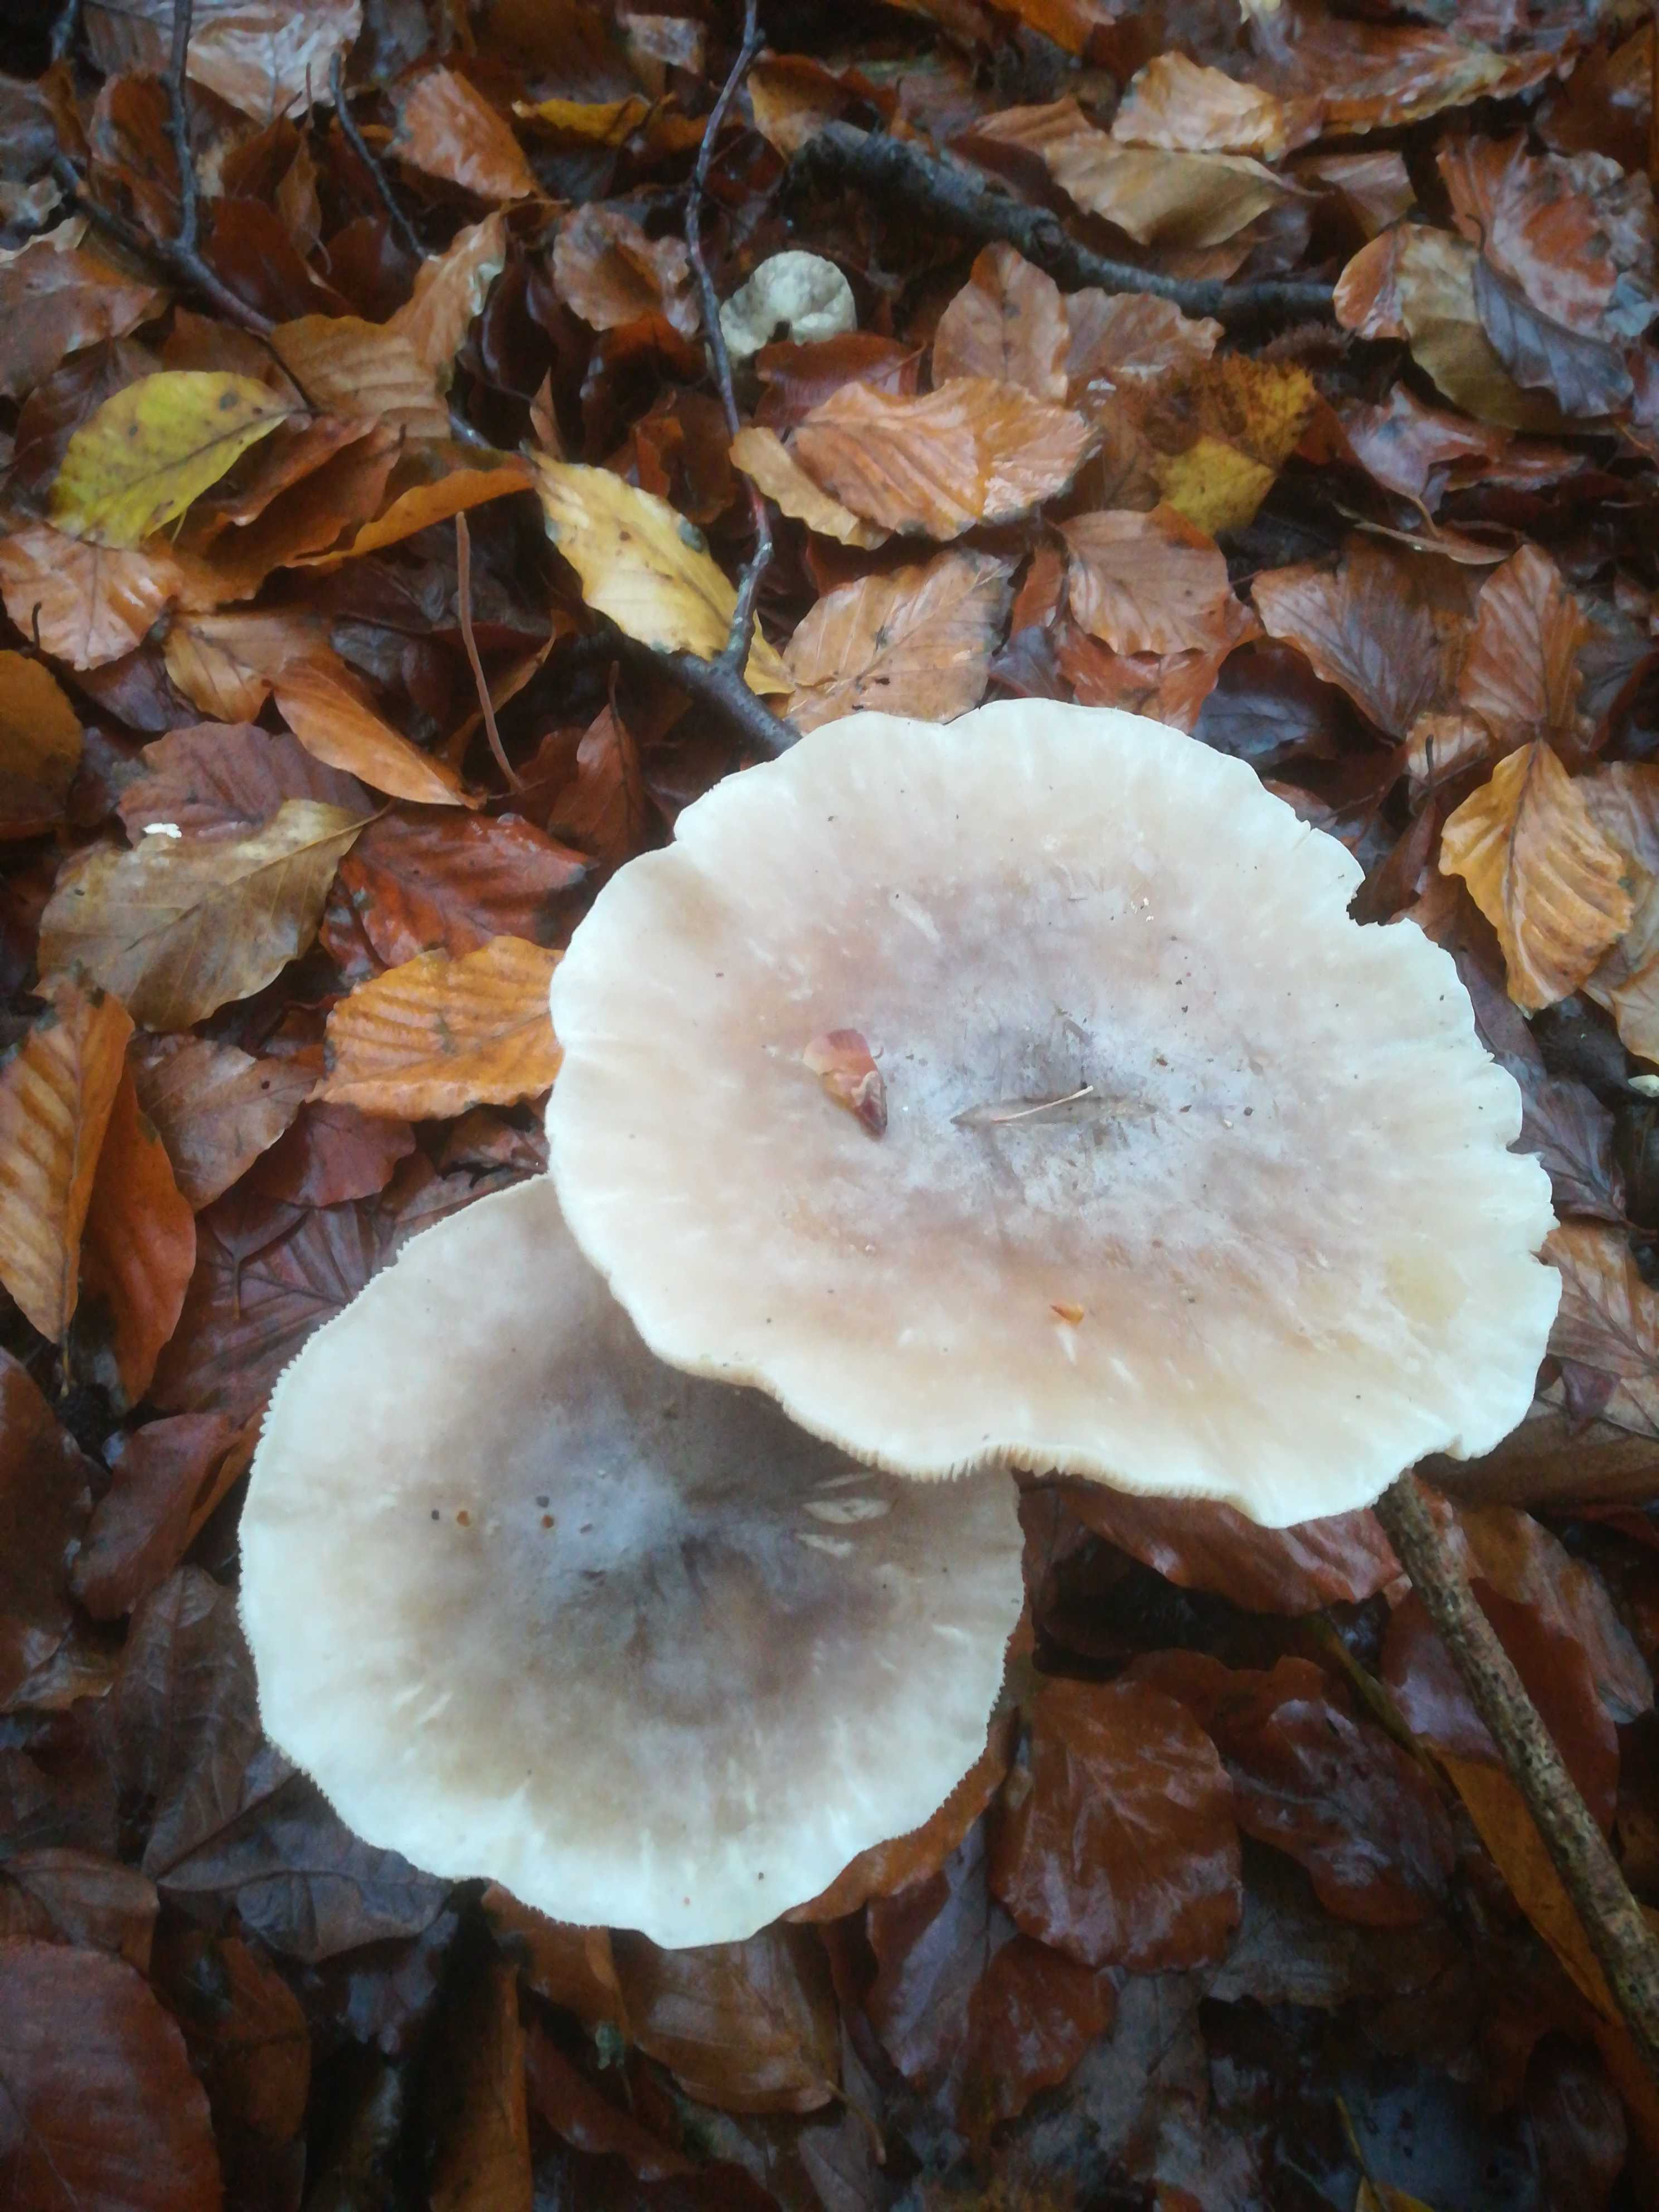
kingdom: Fungi
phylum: Basidiomycota
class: Agaricomycetes
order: Agaricales
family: Tricholomataceae
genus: Clitocybe
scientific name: Clitocybe nebularis
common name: tåge-tragthat
